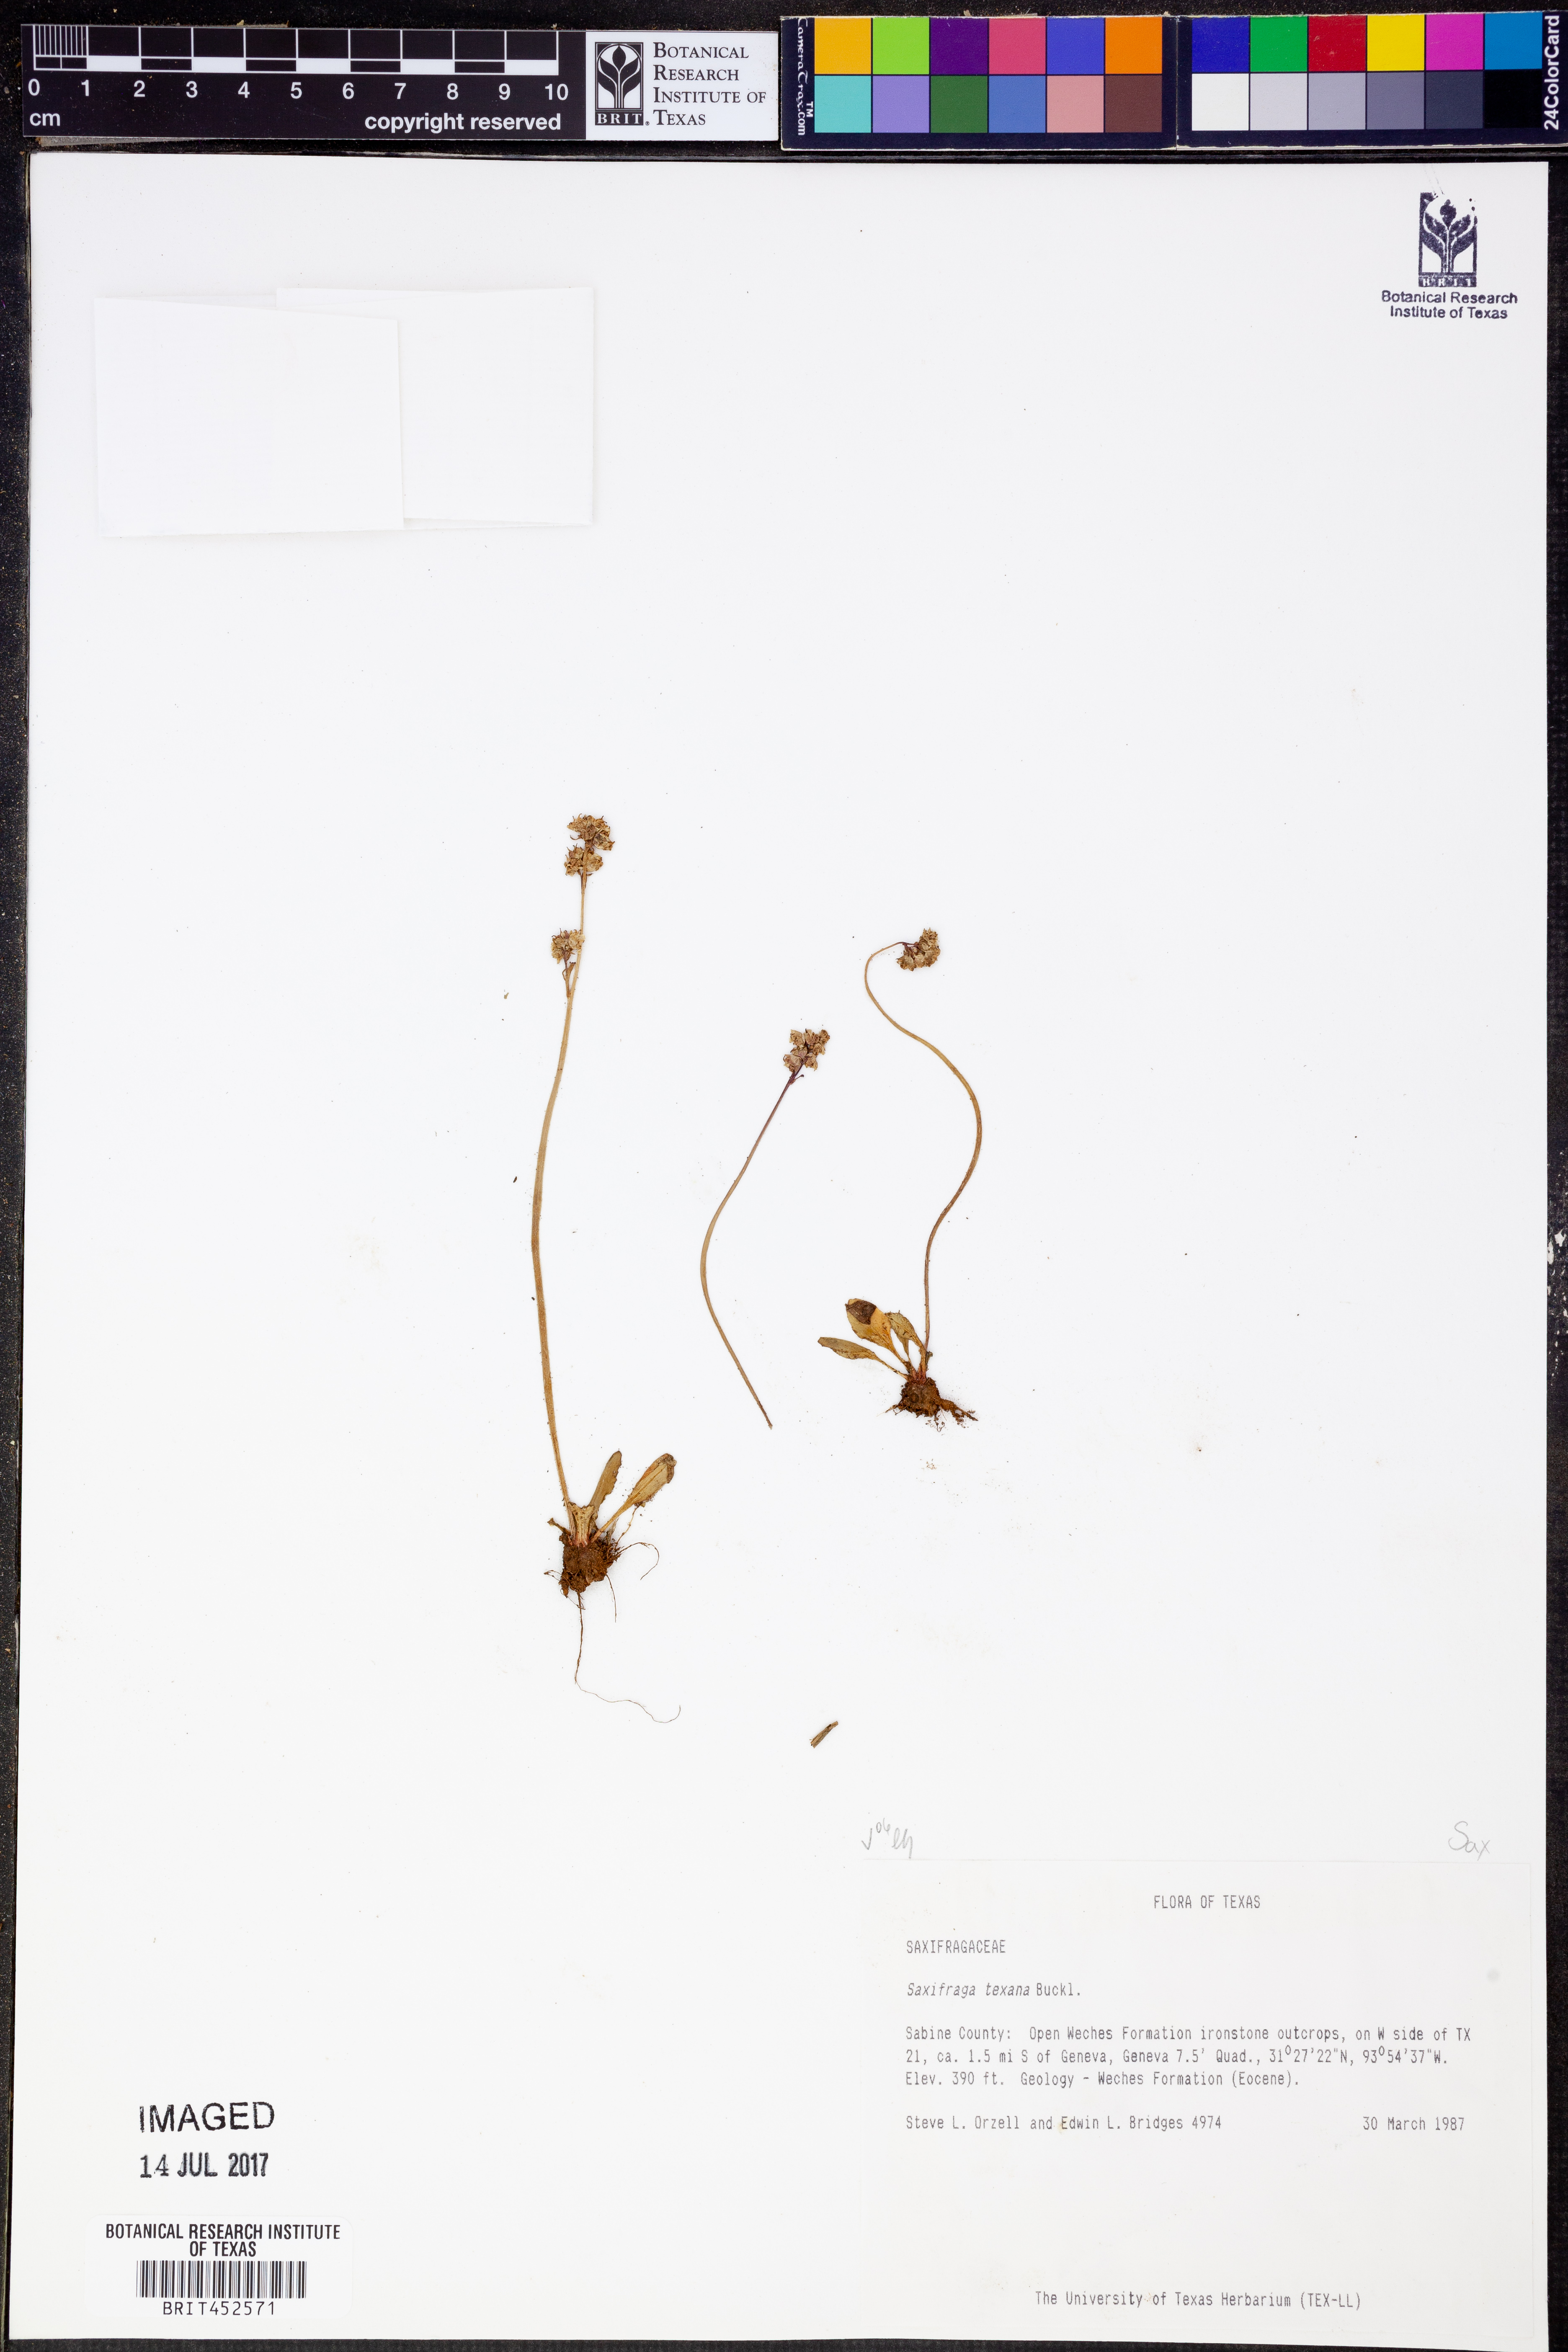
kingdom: Plantae
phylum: Tracheophyta
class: Magnoliopsida
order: Saxifragales
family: Saxifragaceae
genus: Micranthes
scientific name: Micranthes texana
